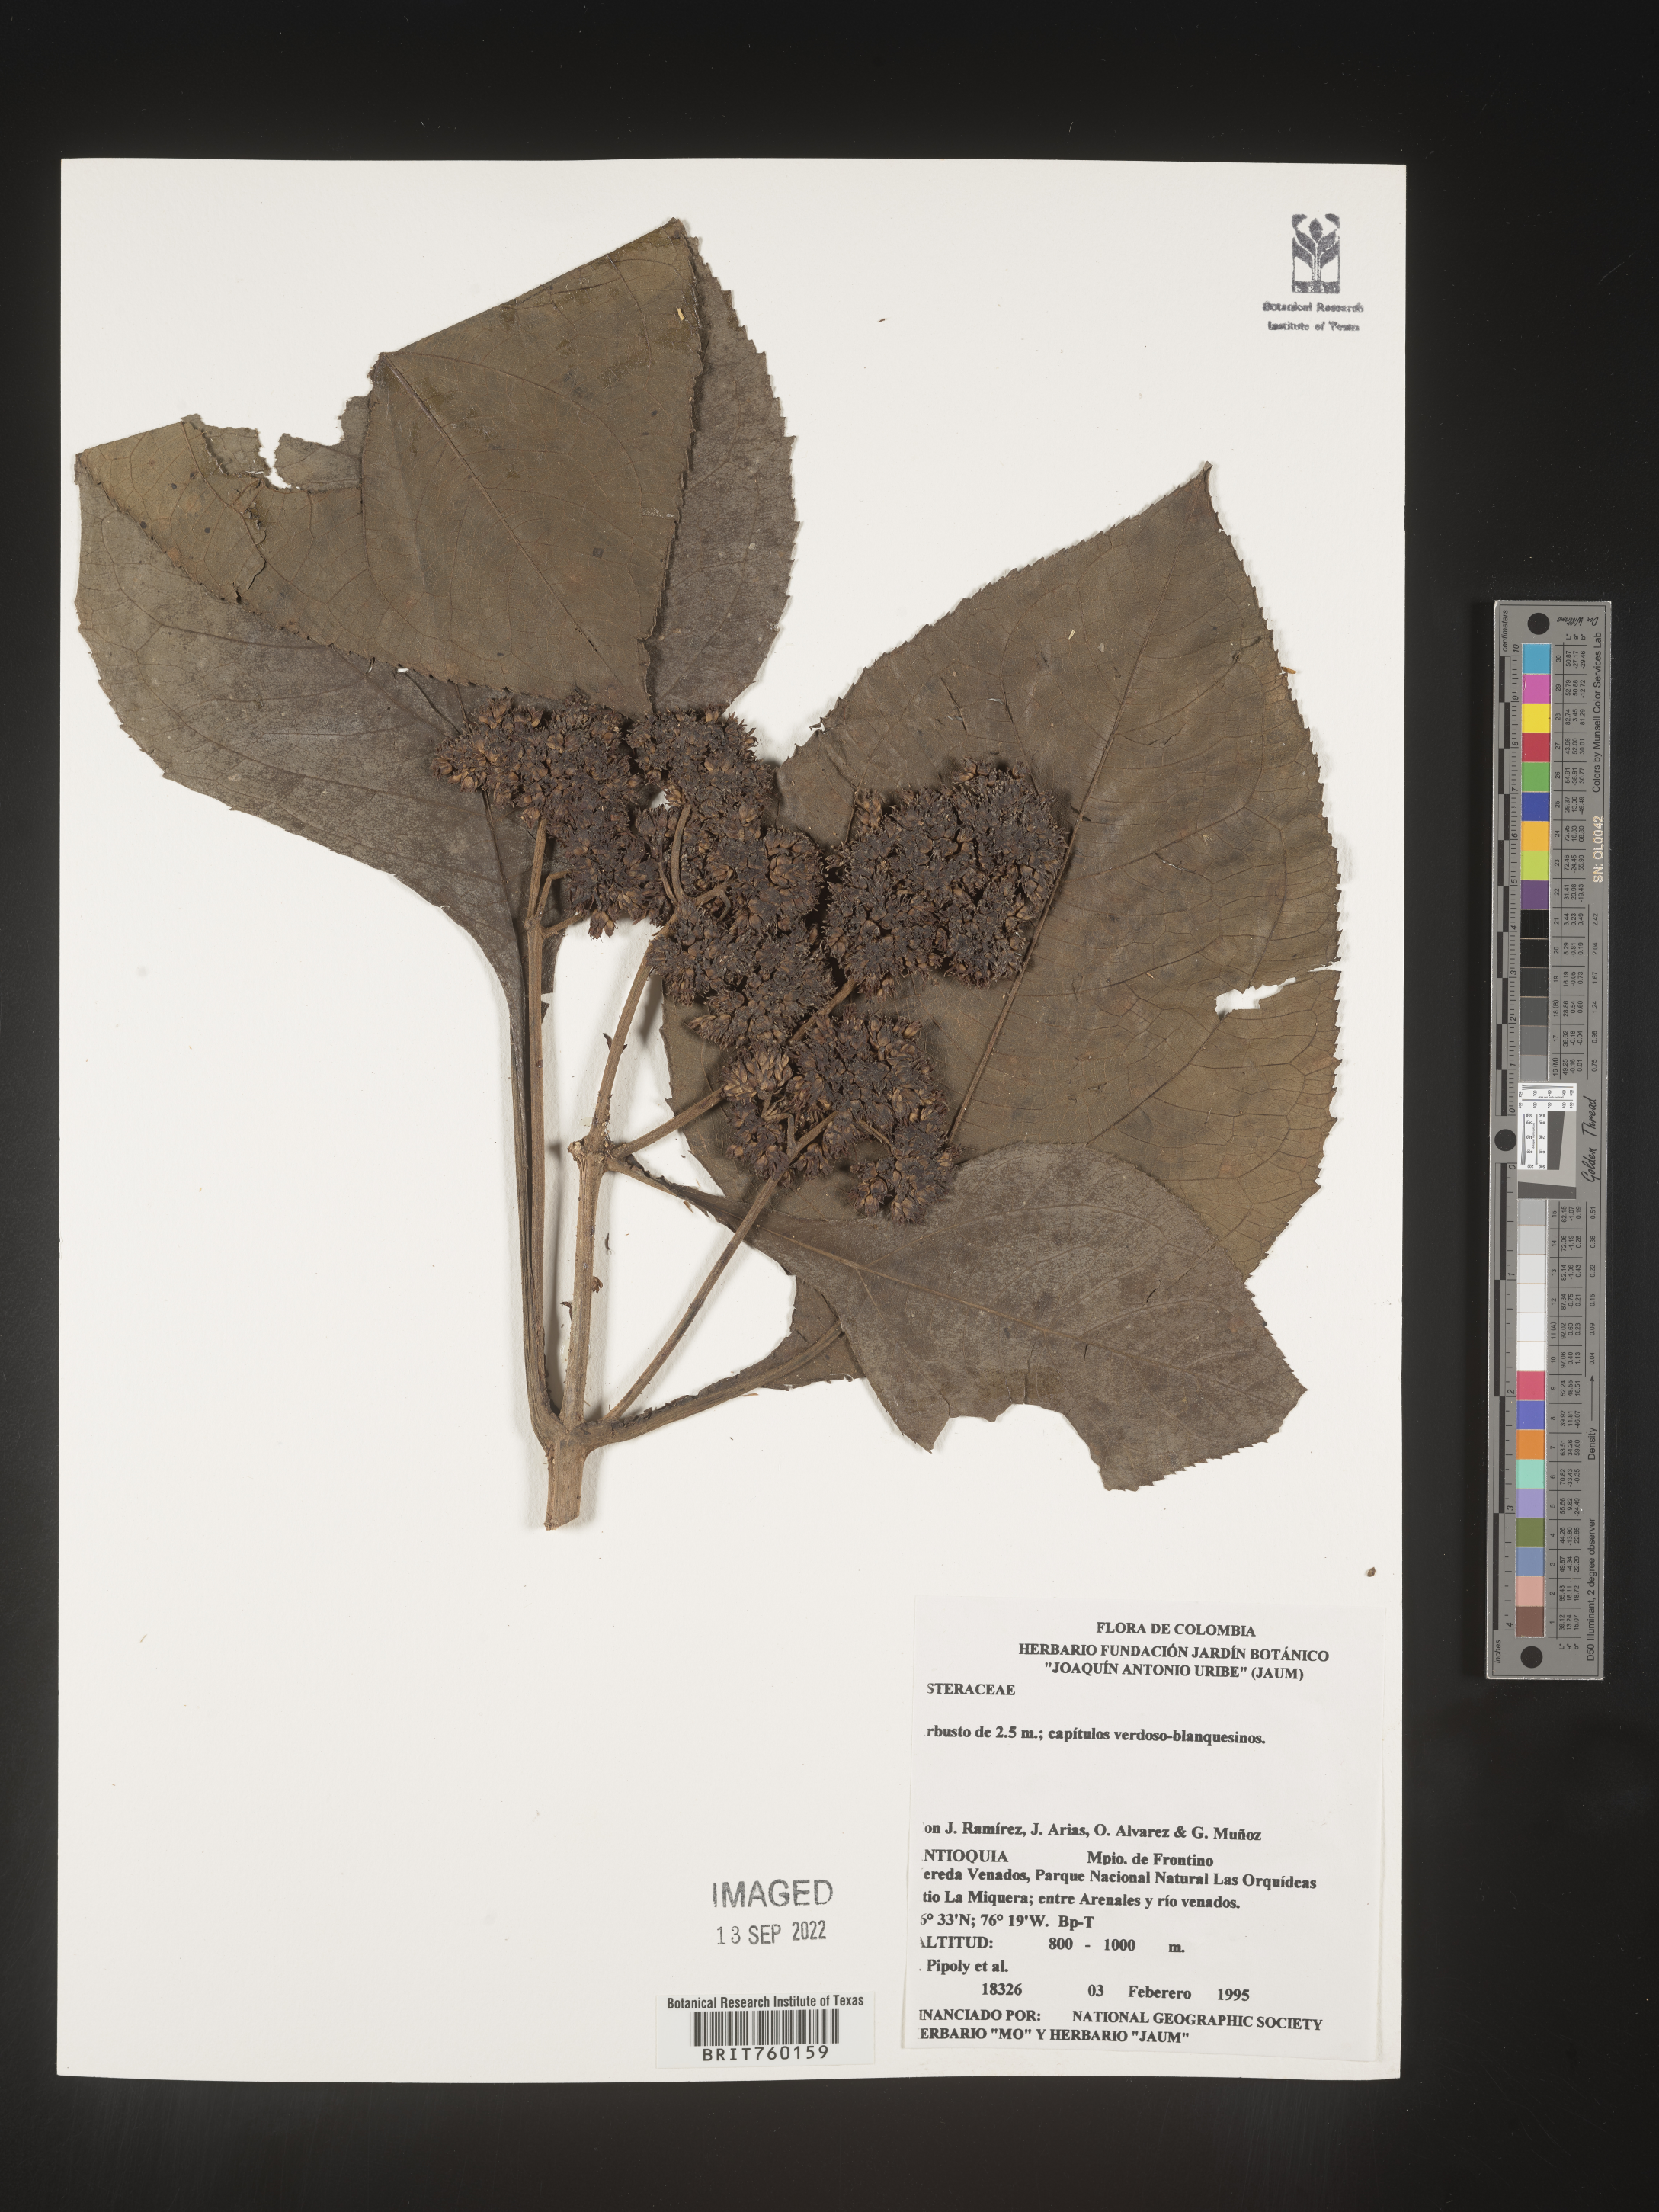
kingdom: Plantae
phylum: Tracheophyta
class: Magnoliopsida
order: Asterales
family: Asteraceae
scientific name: Asteraceae
